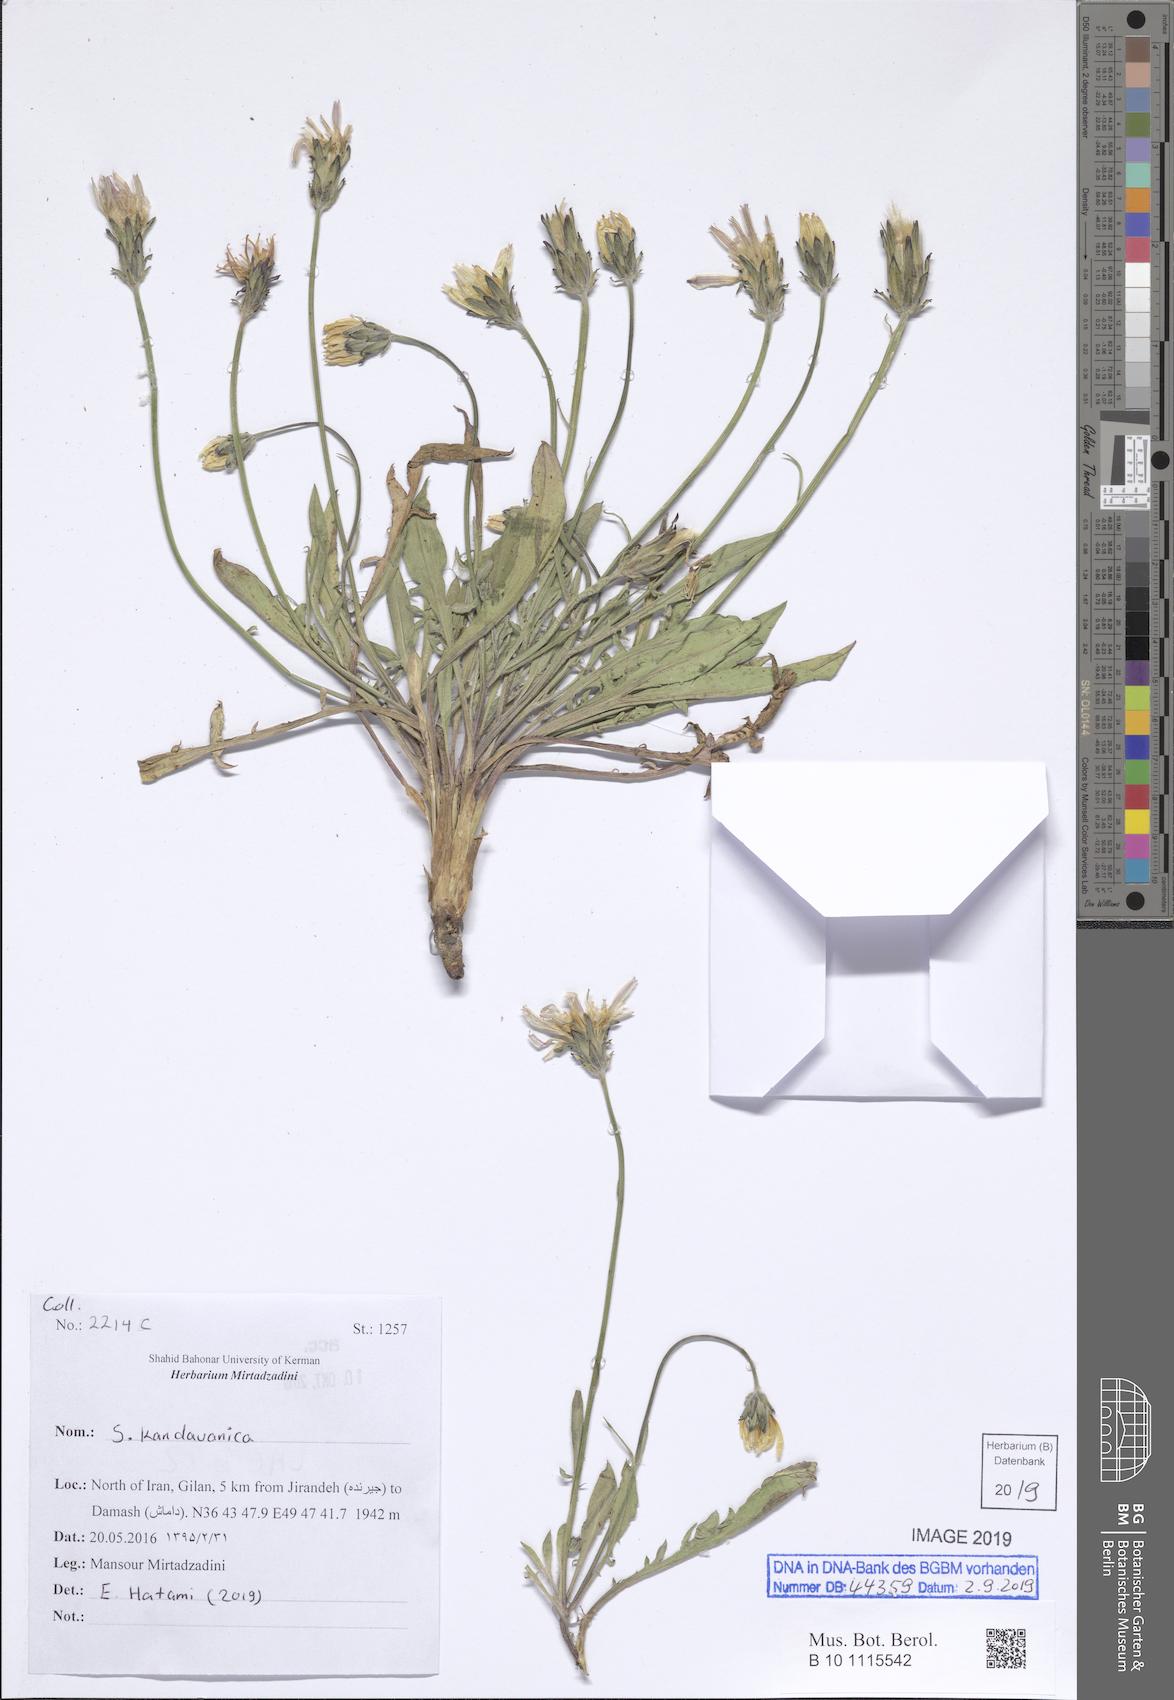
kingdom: Plantae
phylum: Tracheophyta
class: Magnoliopsida
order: Asterales
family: Asteraceae
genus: Scorzonera
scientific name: Scorzonera kandavanica
